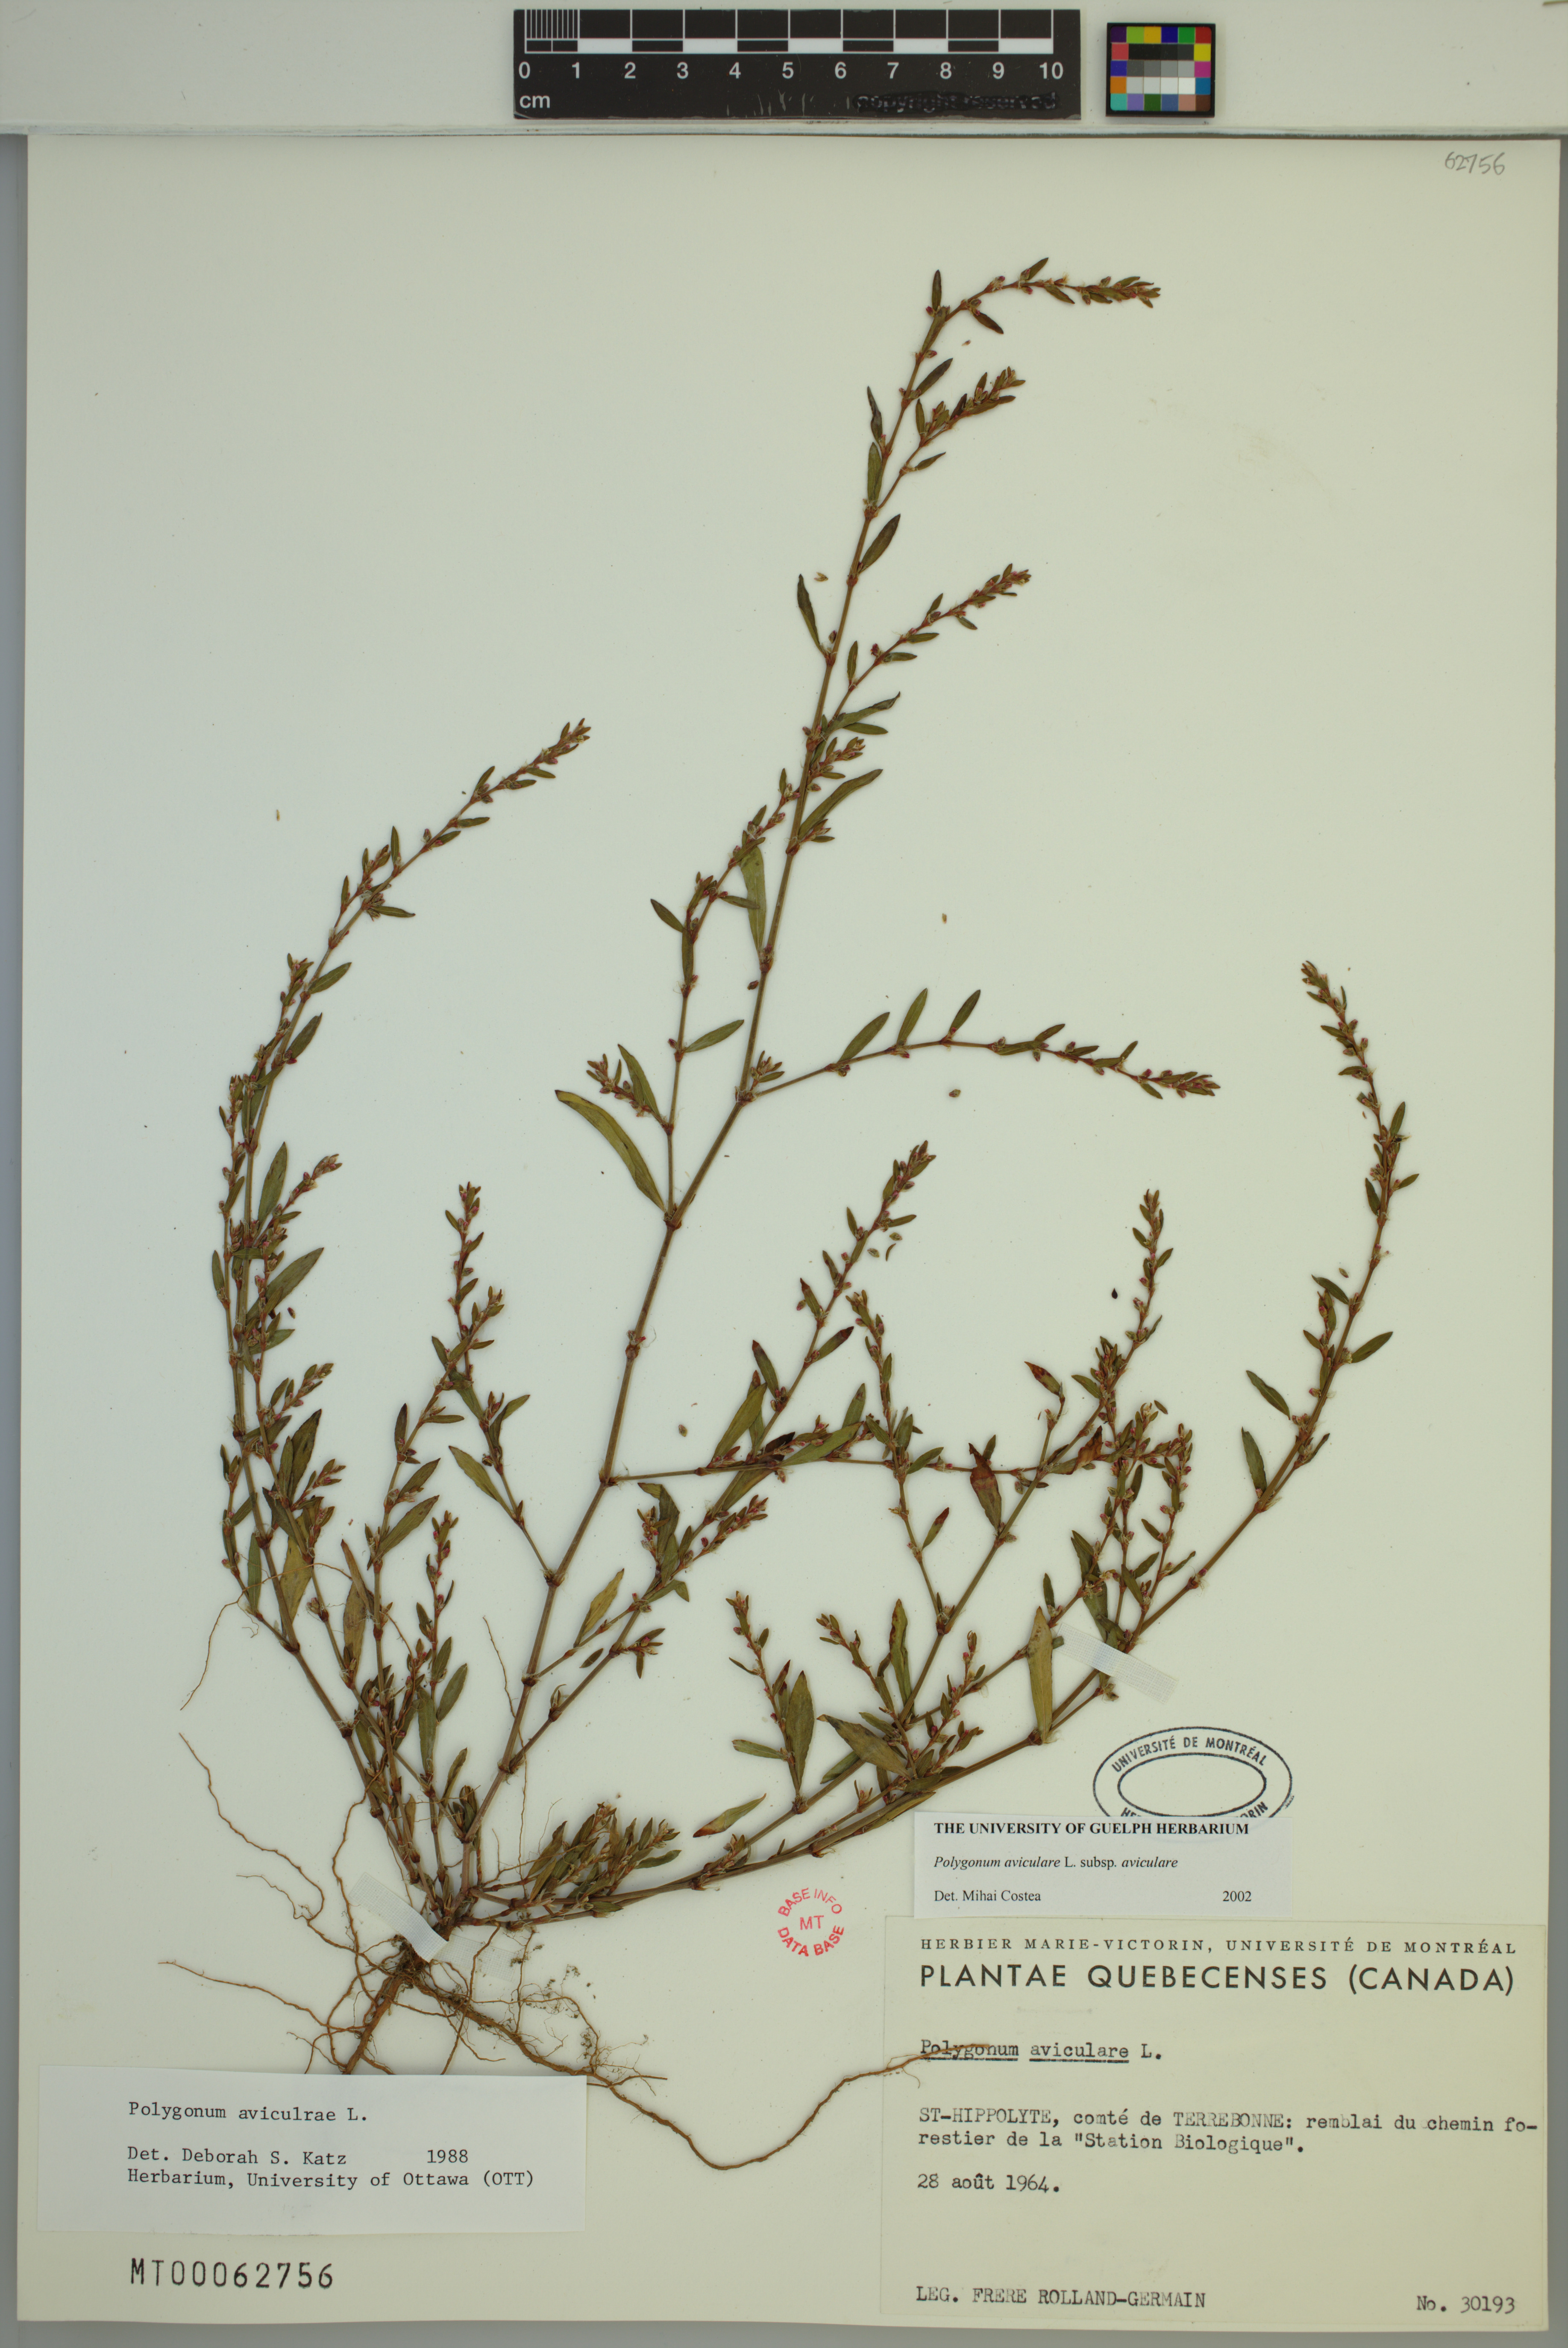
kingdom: Plantae
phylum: Tracheophyta
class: Magnoliopsida
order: Caryophyllales
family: Polygonaceae
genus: Polygonum
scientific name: Polygonum aviculare
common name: Prostrate knotweed
